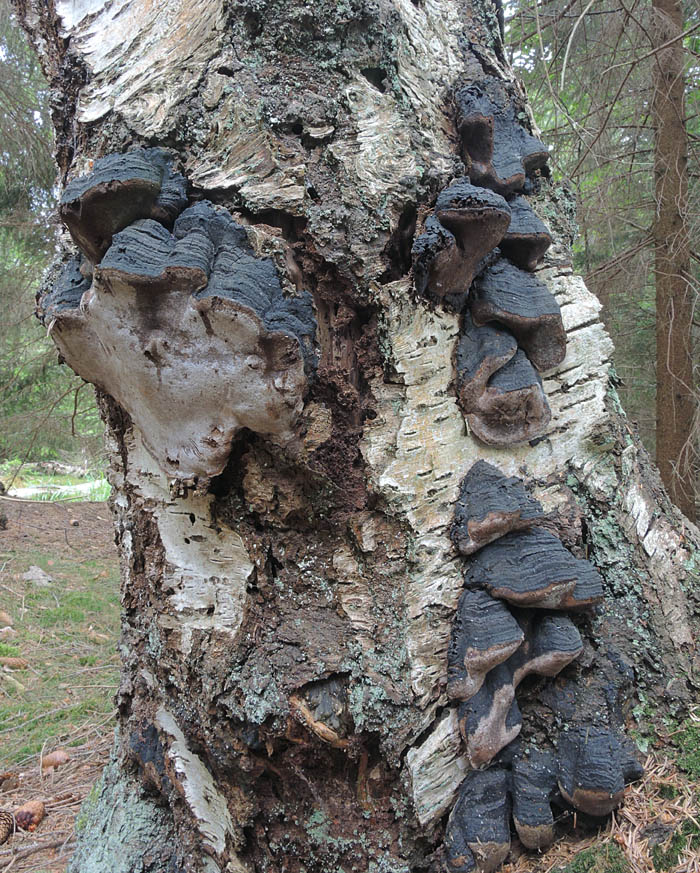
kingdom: Fungi
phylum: Basidiomycota
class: Agaricomycetes
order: Hymenochaetales
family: Hymenochaetaceae
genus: Phellinus
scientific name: Phellinus lundellii
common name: birke-ildporesvamp
